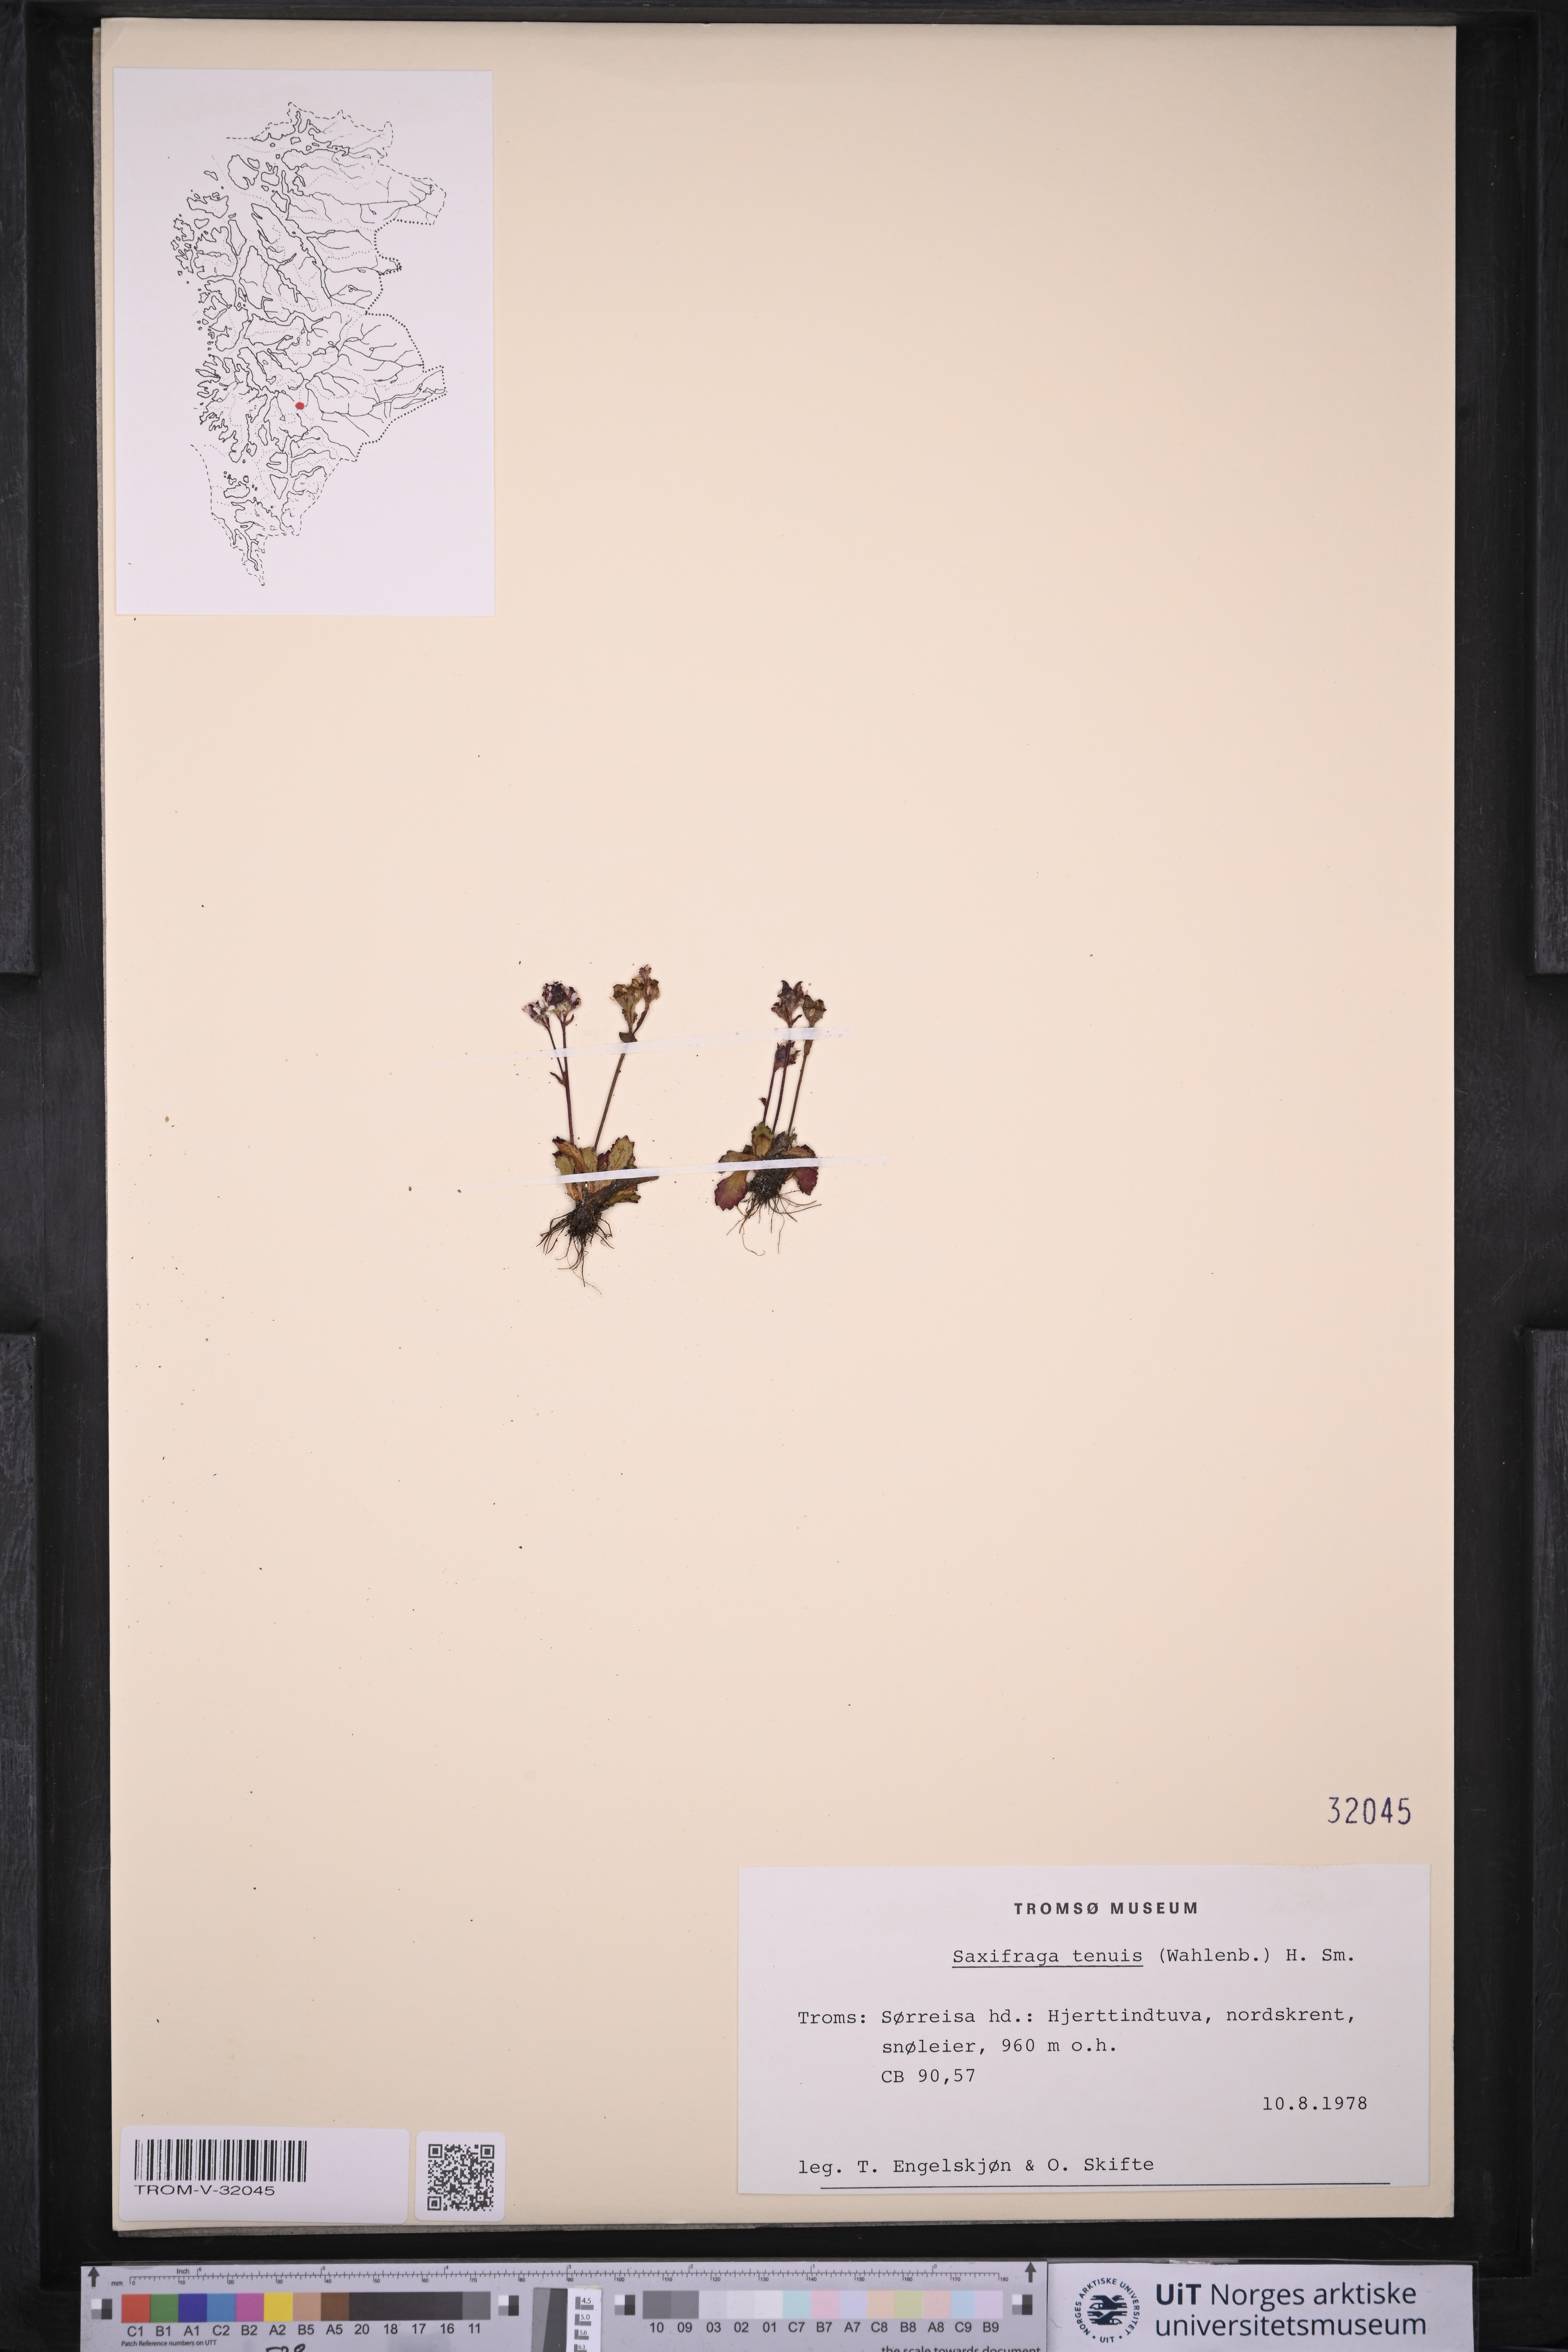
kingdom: Plantae
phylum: Tracheophyta
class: Magnoliopsida
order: Saxifragales
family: Saxifragaceae
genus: Micranthes
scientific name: Micranthes tenuis
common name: Ottertail pass saxifrage
